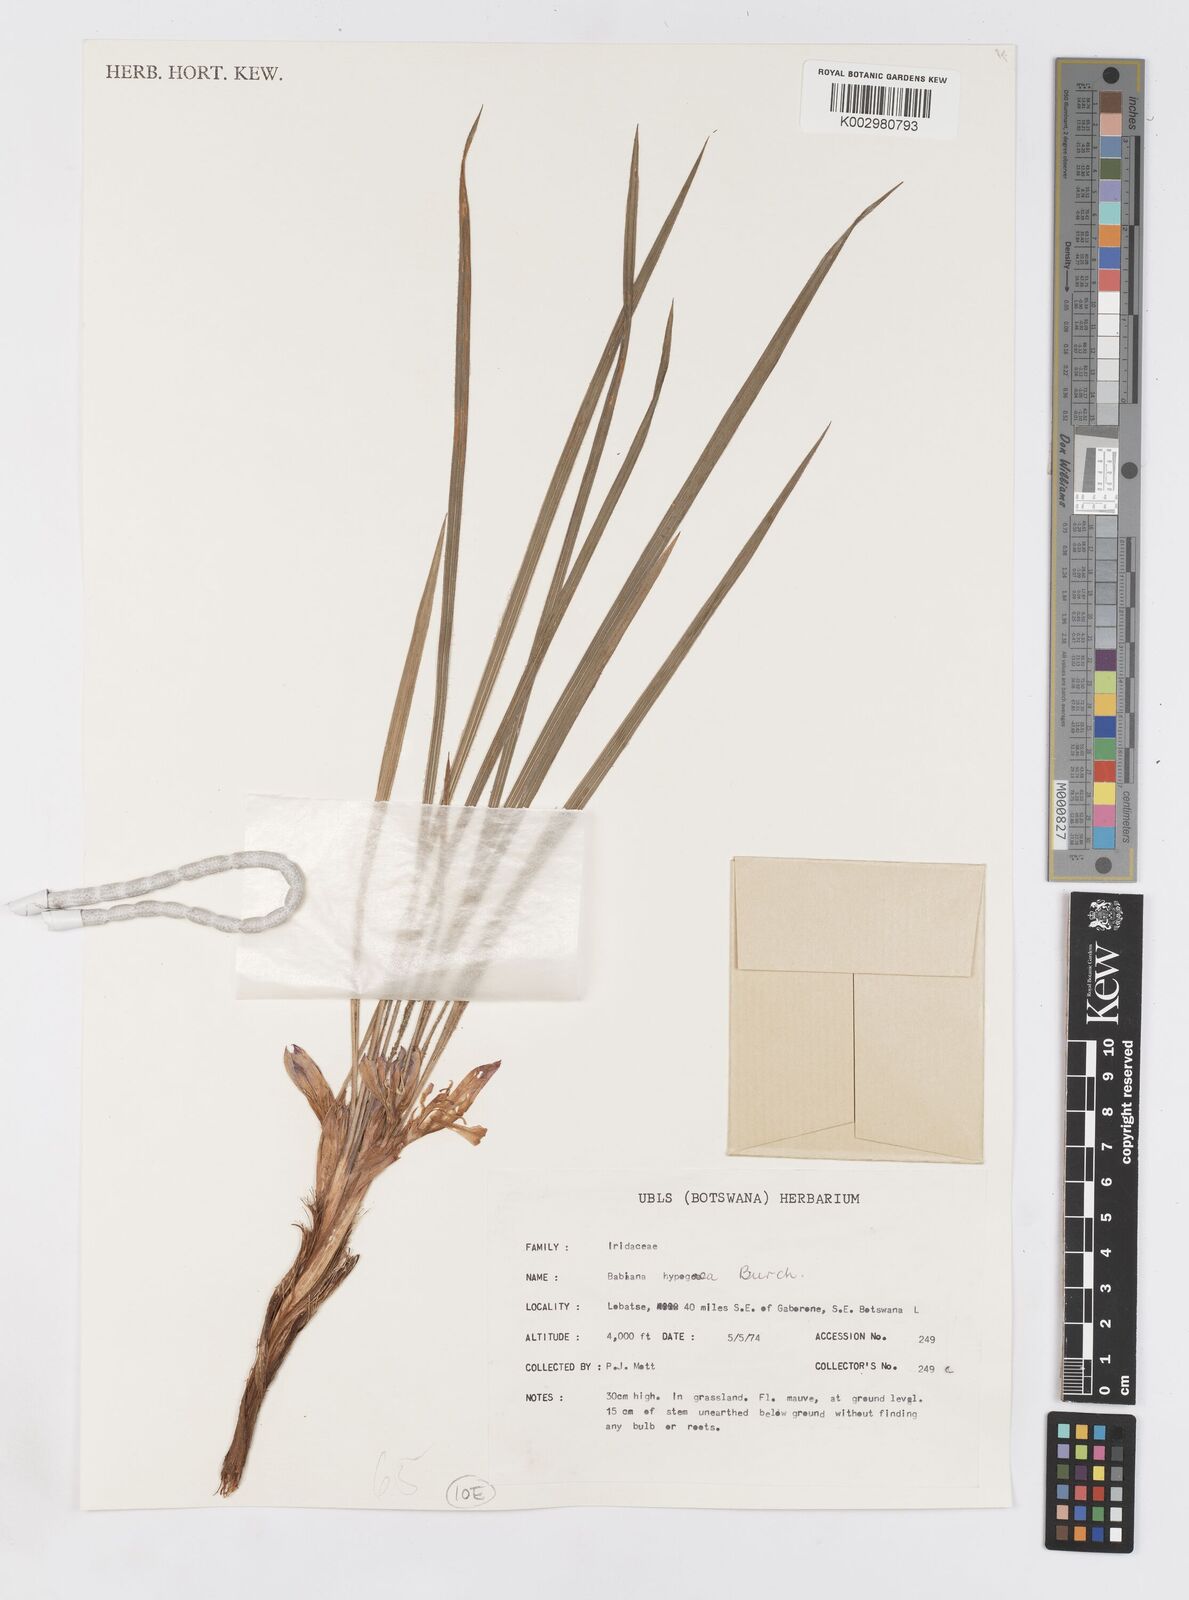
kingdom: Plantae
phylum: Tracheophyta
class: Liliopsida
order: Asparagales
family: Iridaceae
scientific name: Iridaceae
